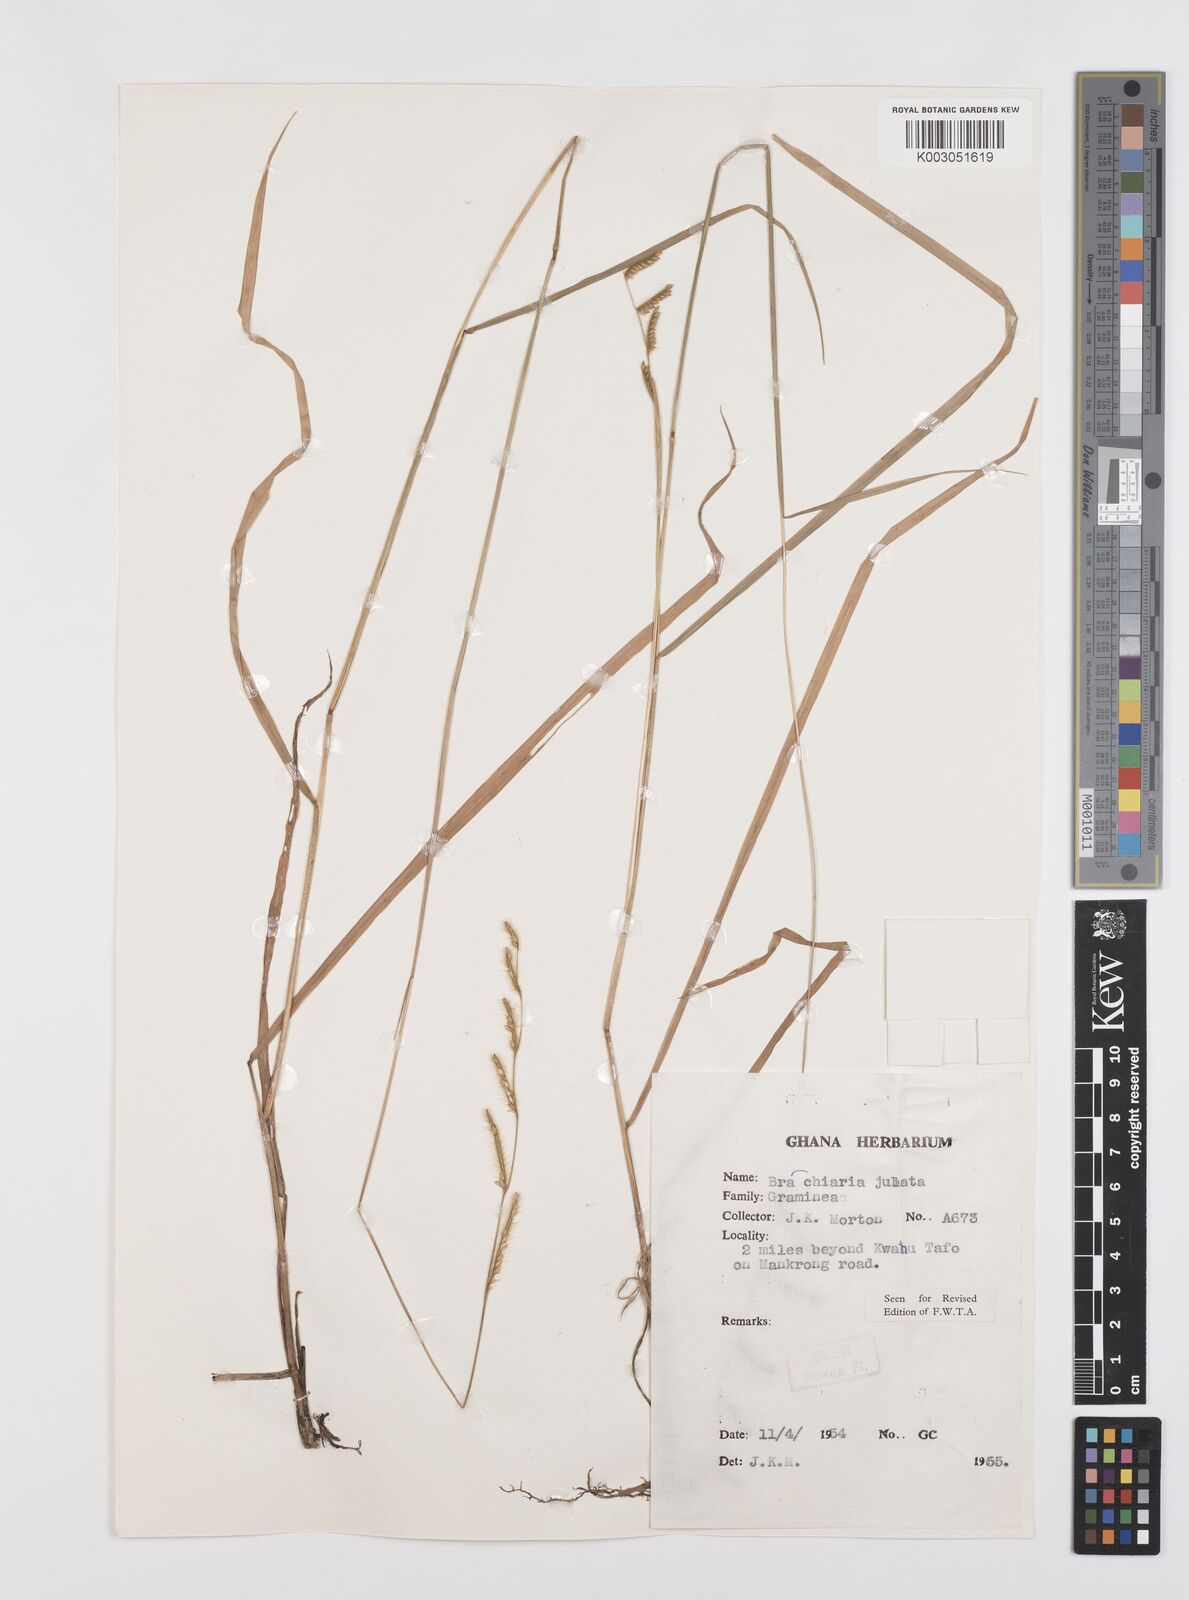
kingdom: Plantae
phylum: Tracheophyta
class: Liliopsida
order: Poales
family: Poaceae
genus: Urochloa
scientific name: Urochloa jubata
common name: Buffalograss
